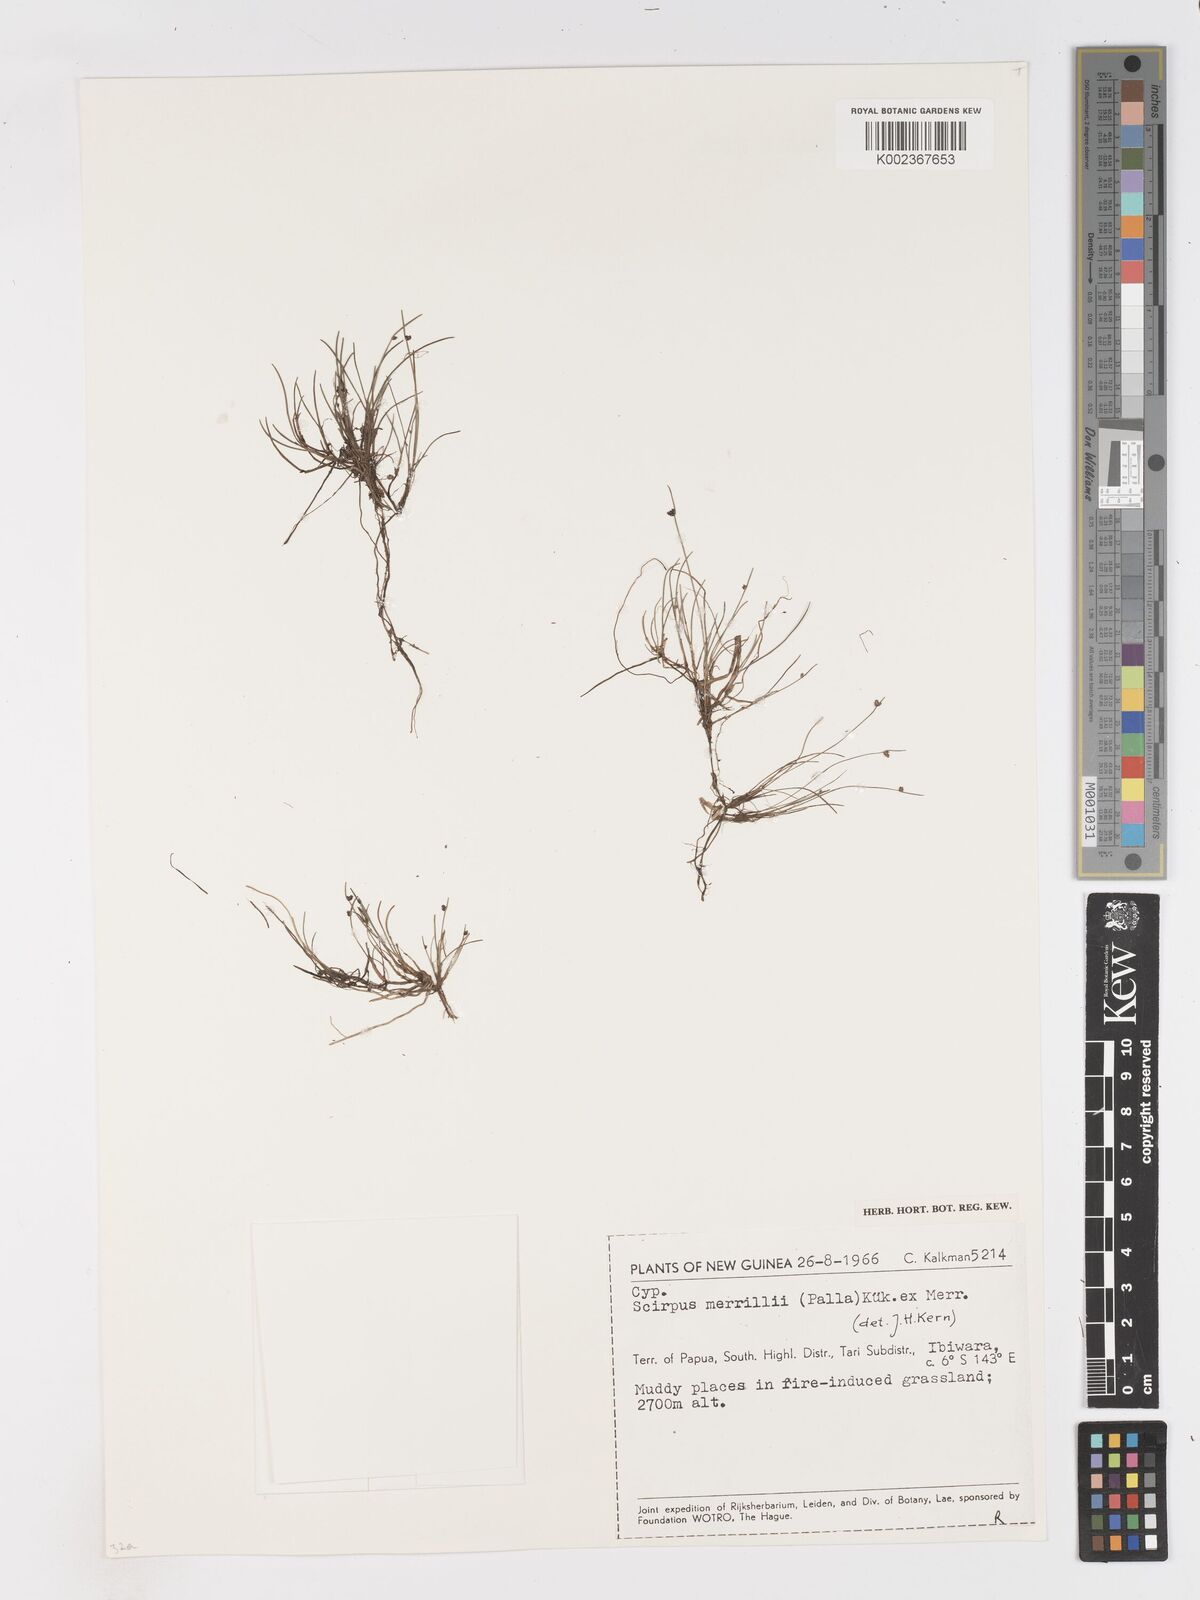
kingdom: Plantae
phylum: Tracheophyta
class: Liliopsida
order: Poales
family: Cyperaceae
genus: Isolepis
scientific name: Isolepis subtilissima
